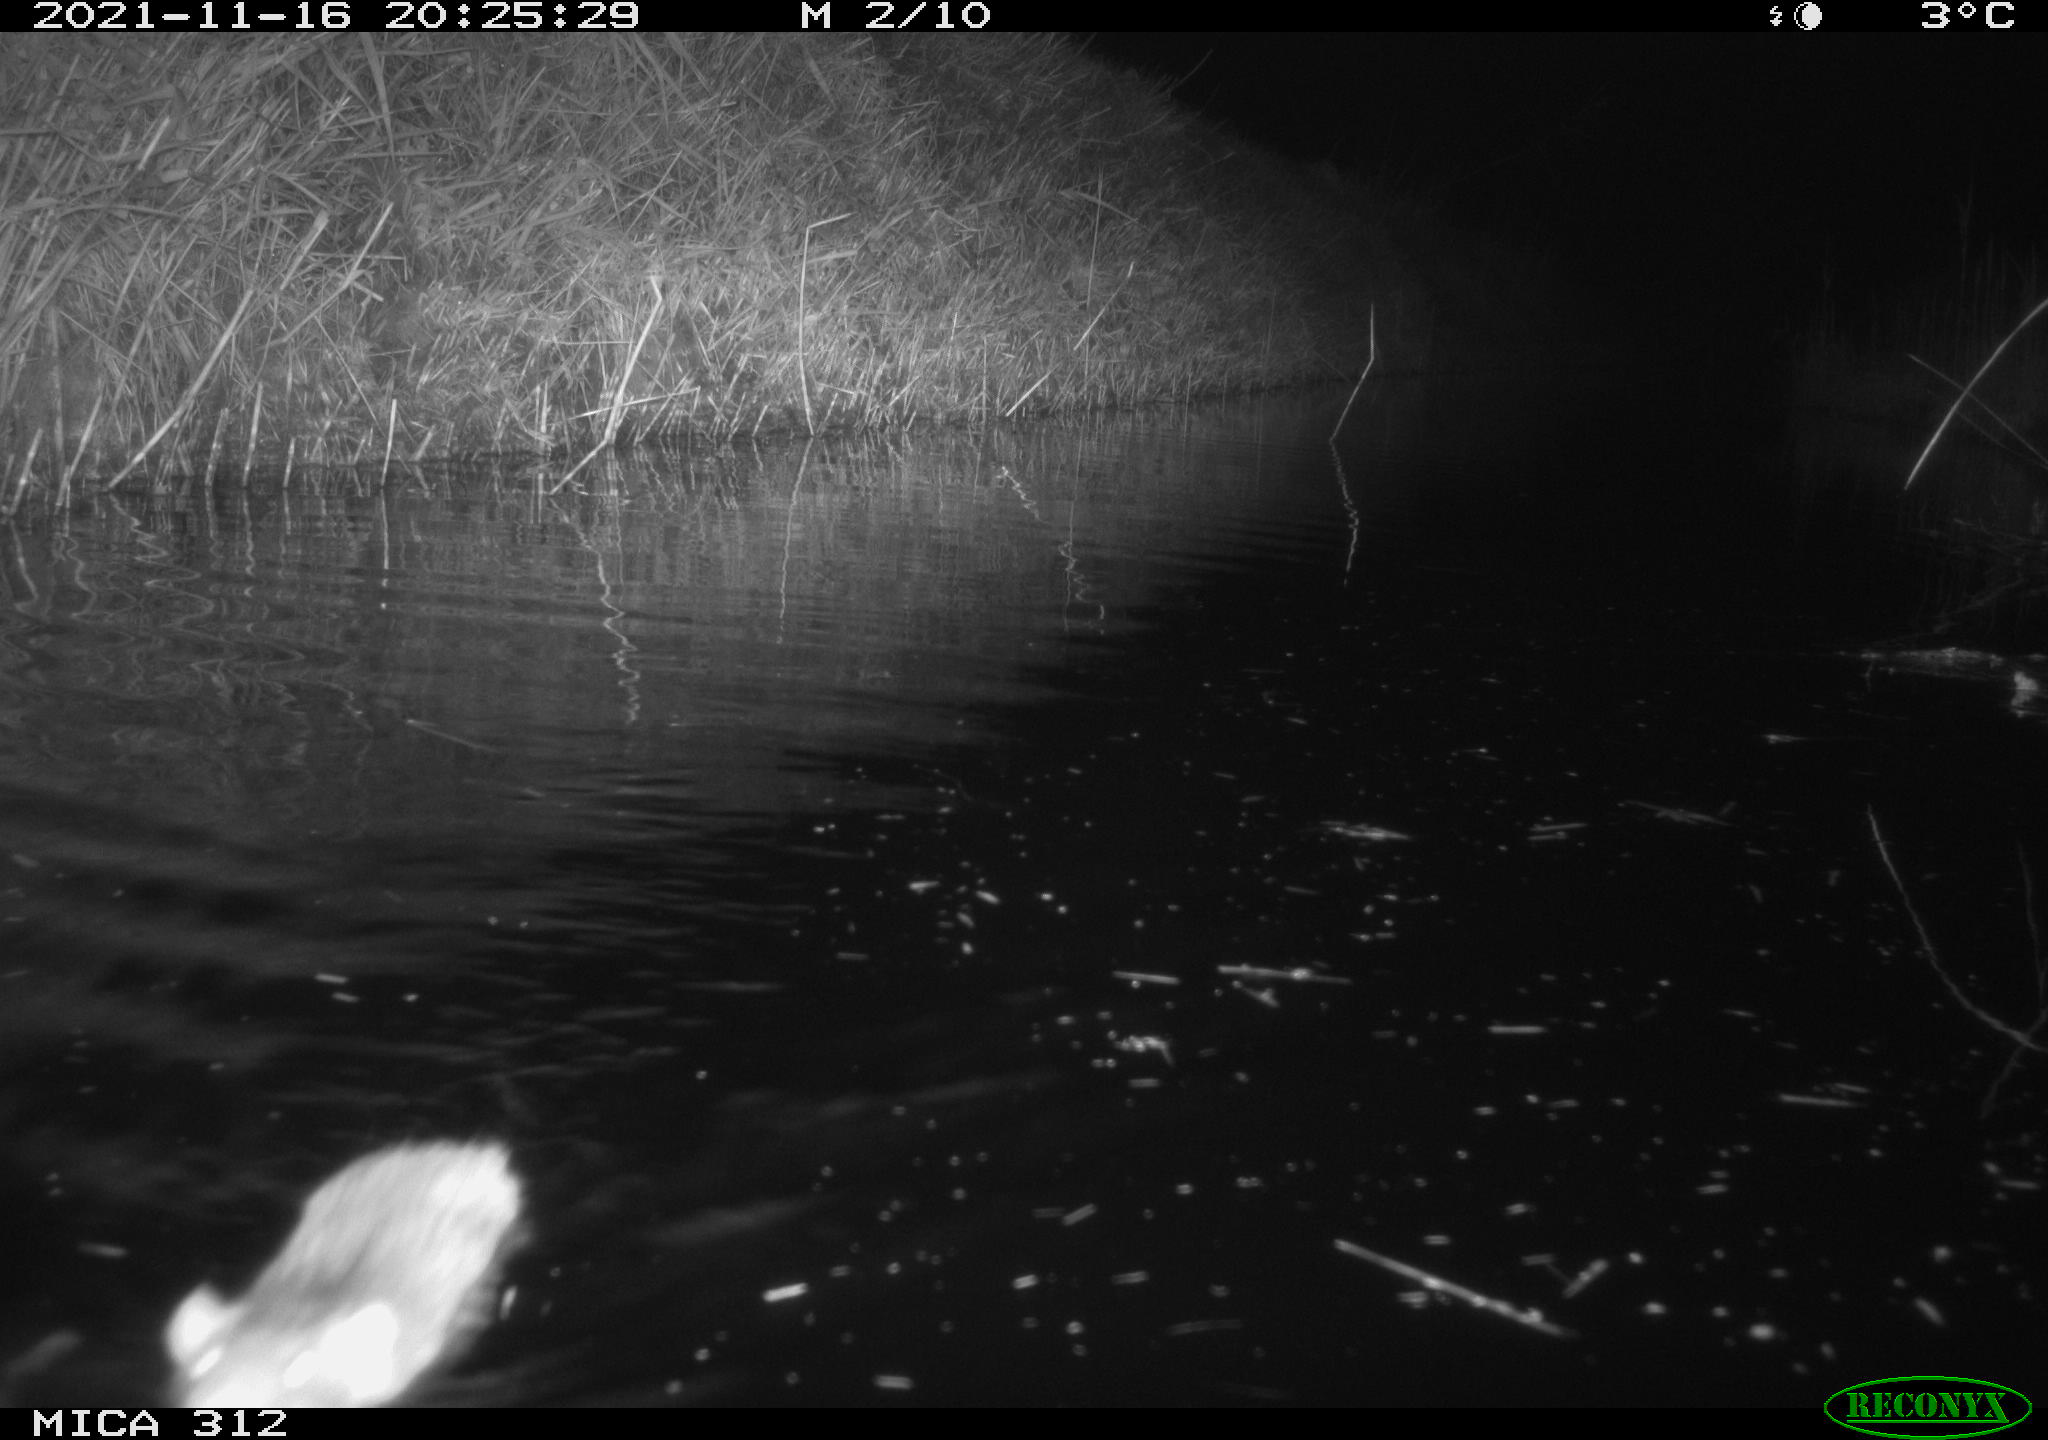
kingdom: Animalia
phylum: Chordata
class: Mammalia
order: Rodentia
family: Muridae
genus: Rattus
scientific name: Rattus norvegicus
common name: Brown rat
